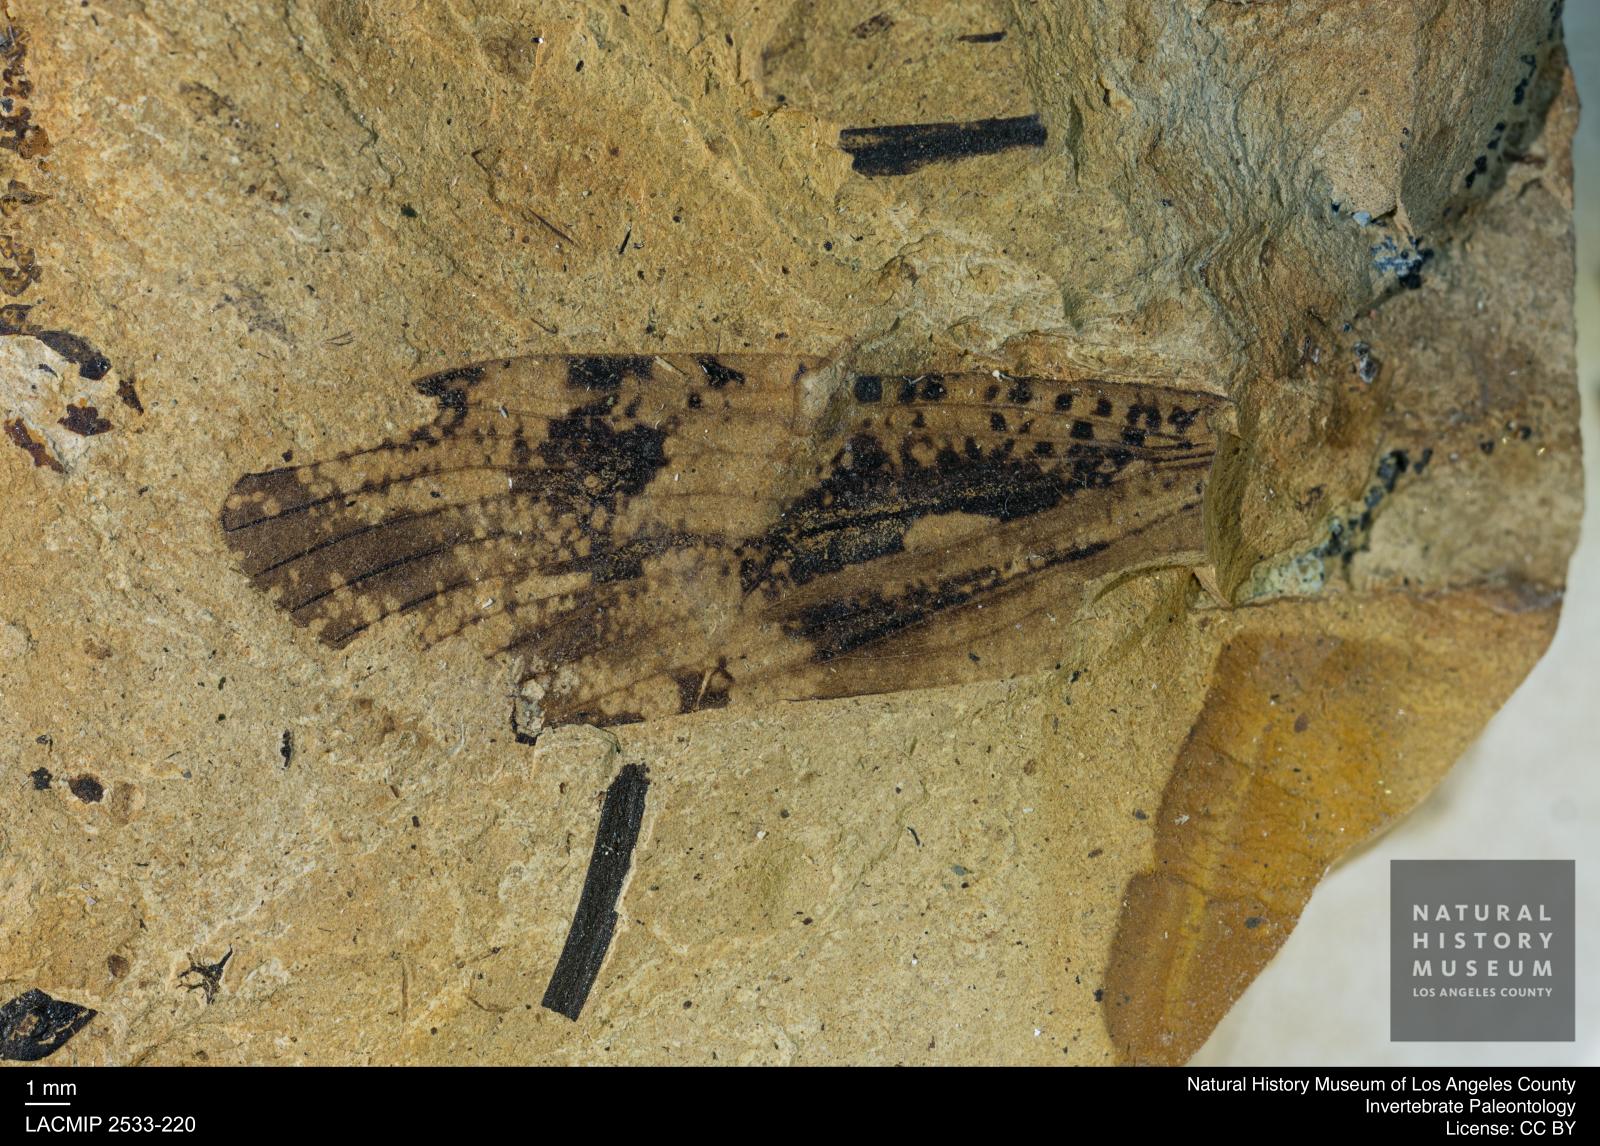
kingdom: Animalia
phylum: Arthropoda
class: Insecta
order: Trichoptera
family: Phryganeidae
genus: Phryganea
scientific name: Phryganea elegantula
